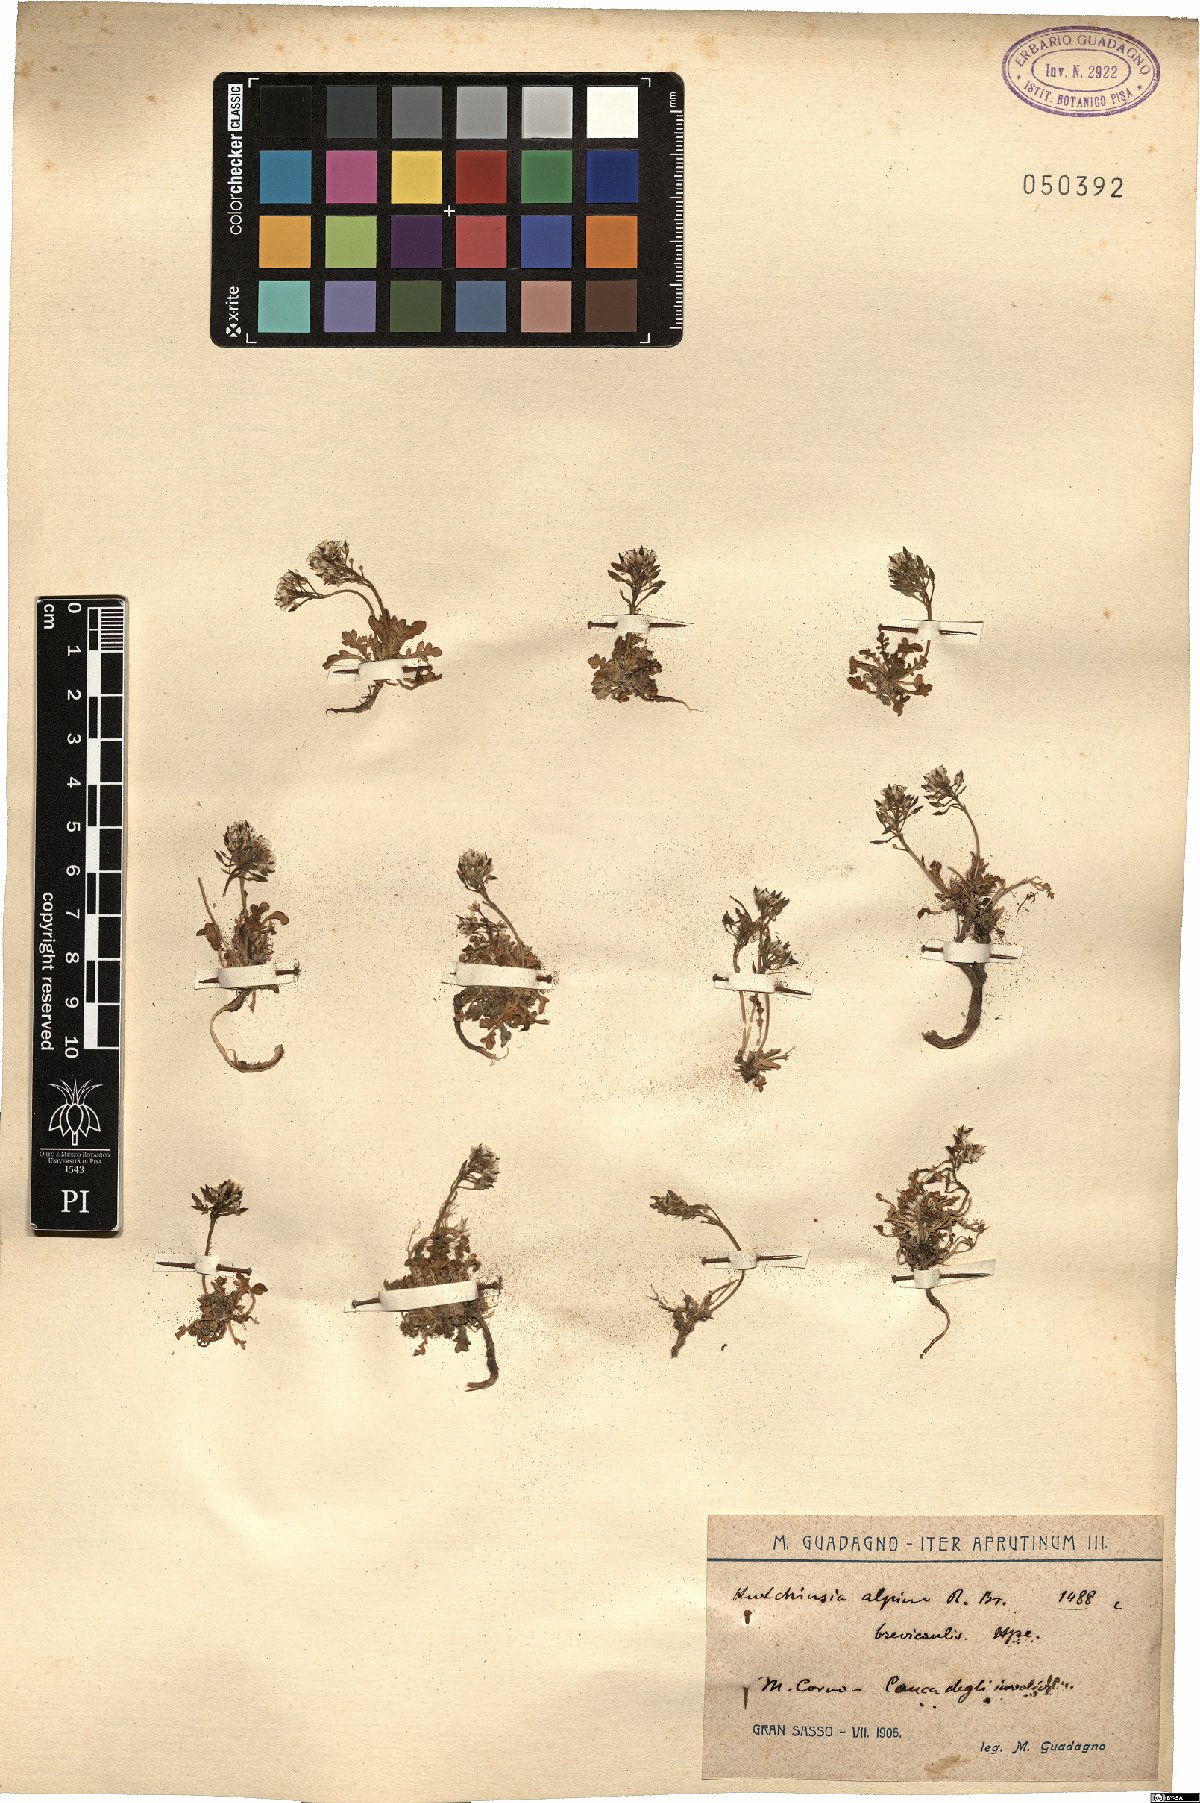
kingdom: Plantae
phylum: Tracheophyta
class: Magnoliopsida
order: Brassicales
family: Brassicaceae
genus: Hornungia
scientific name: Hornungia alpina
